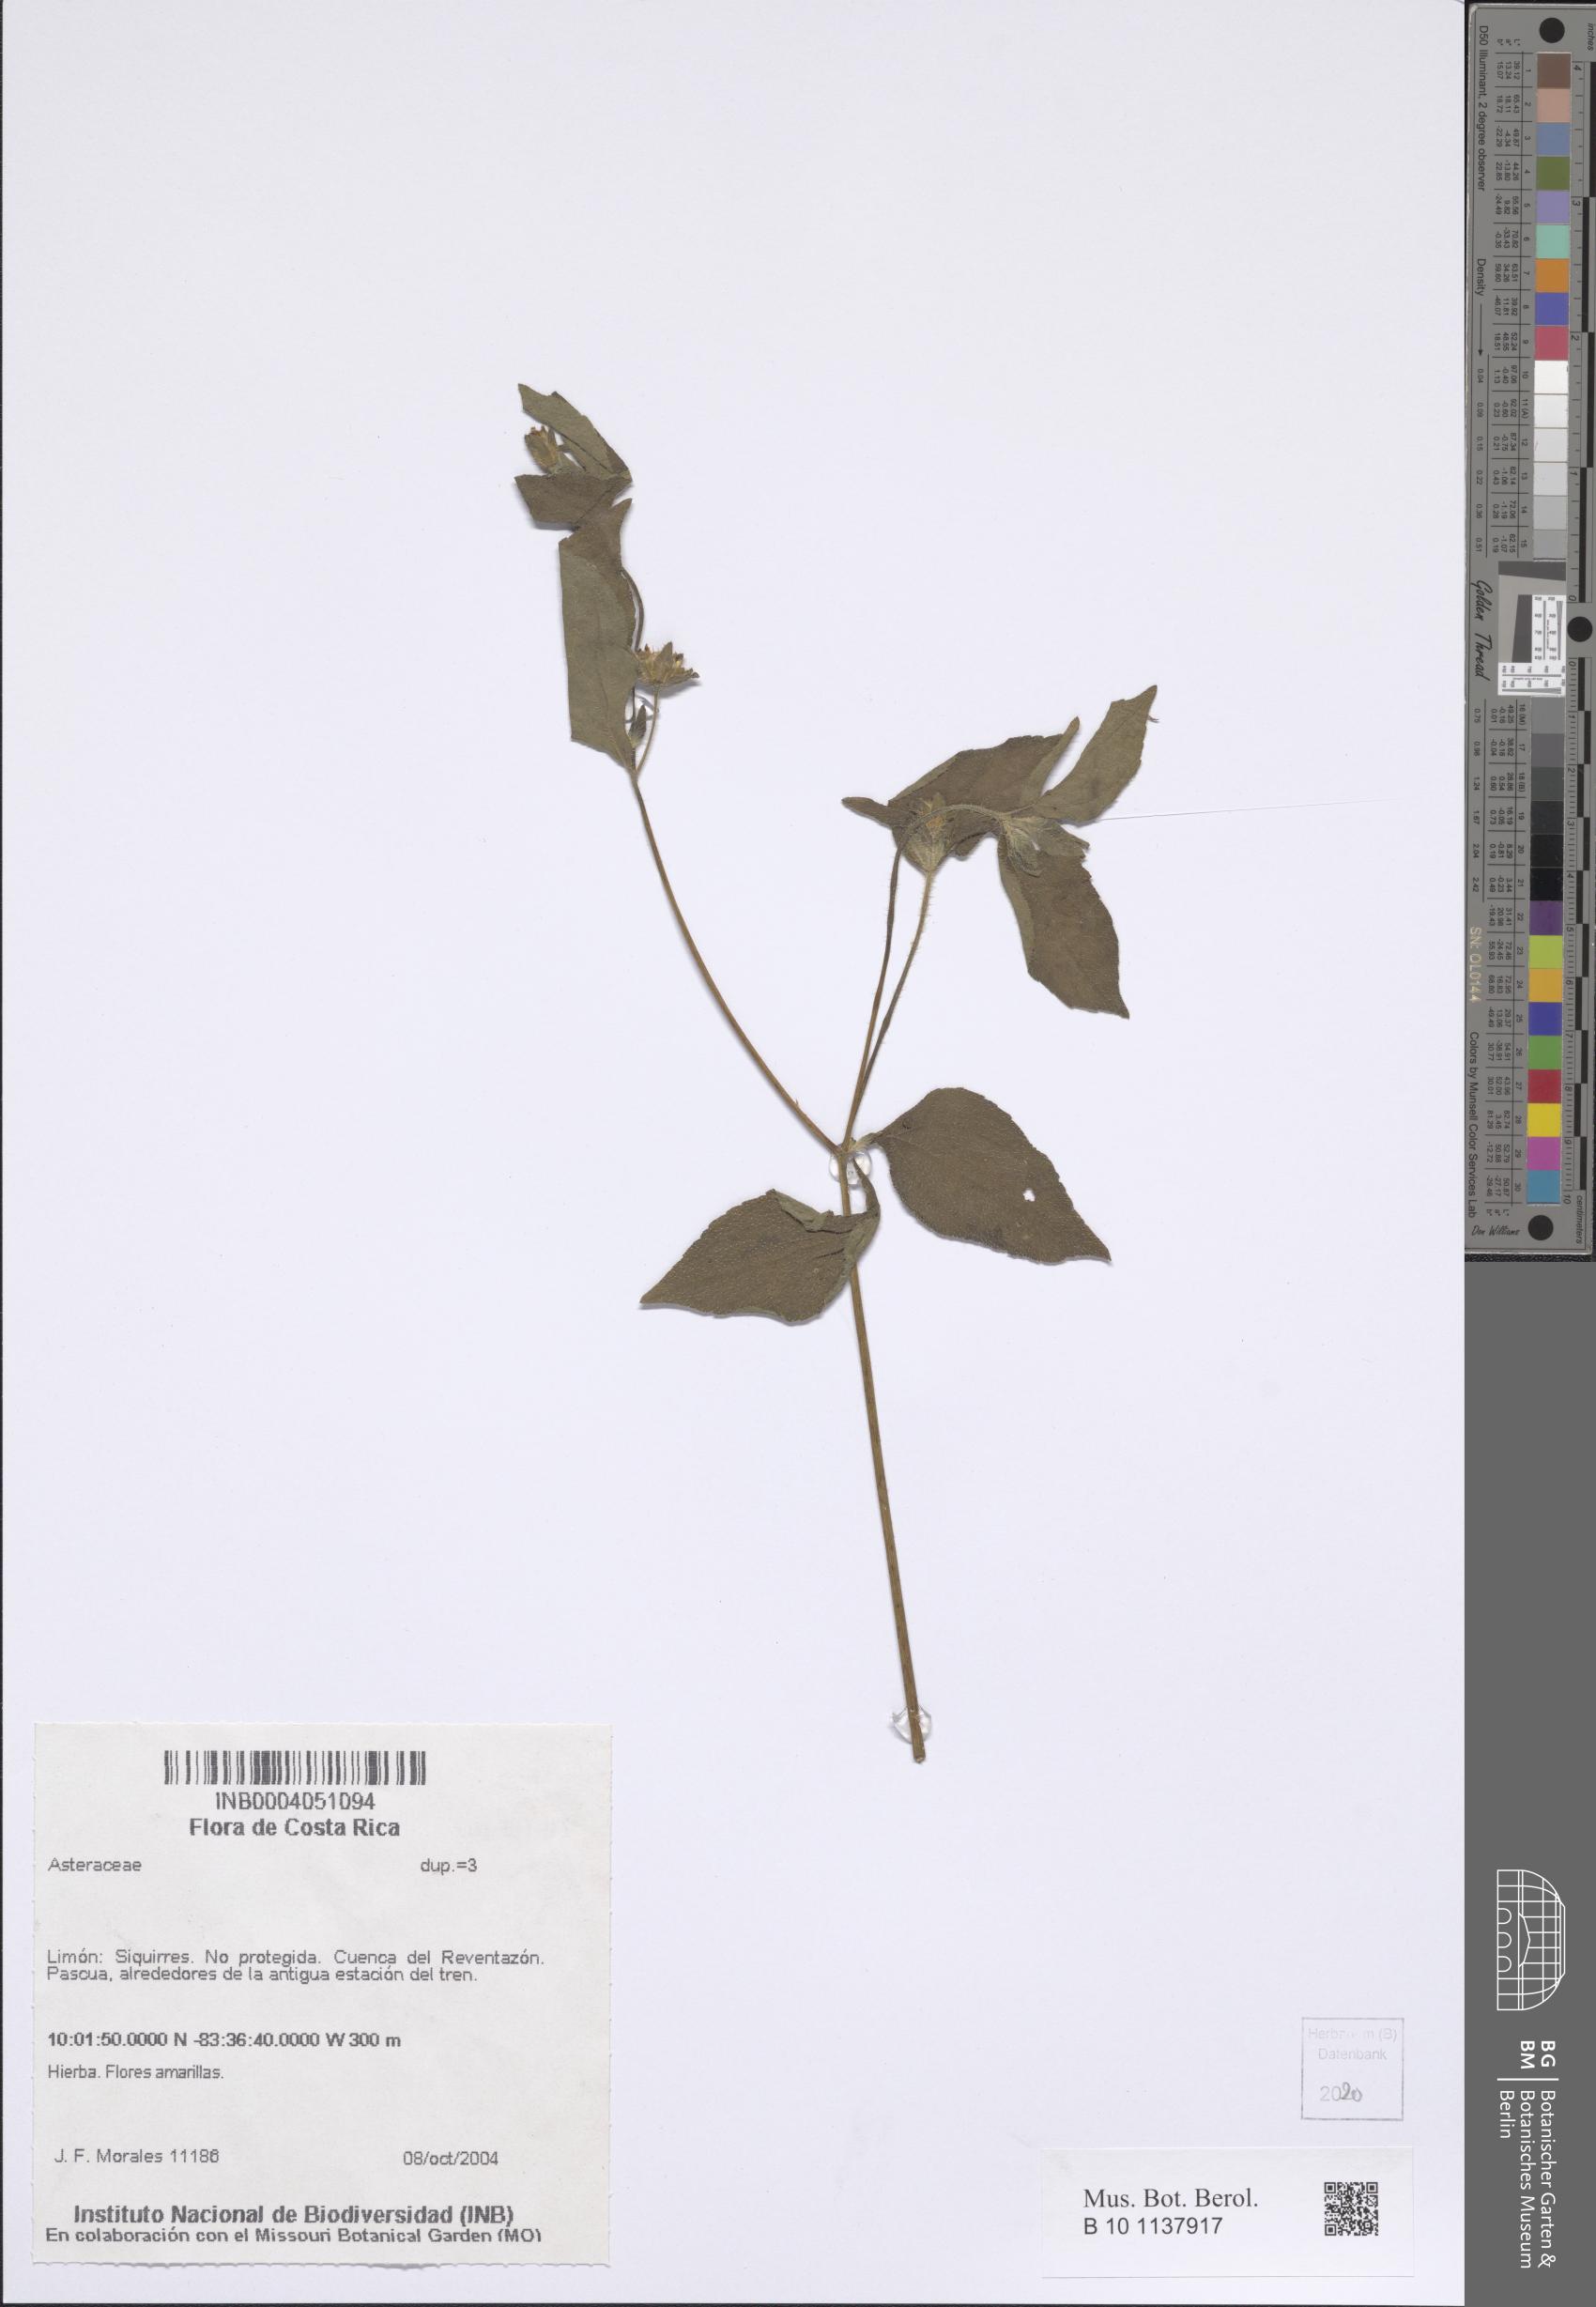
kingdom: Plantae
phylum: Tracheophyta
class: Magnoliopsida
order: Asterales
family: Asteraceae
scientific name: Asteraceae
